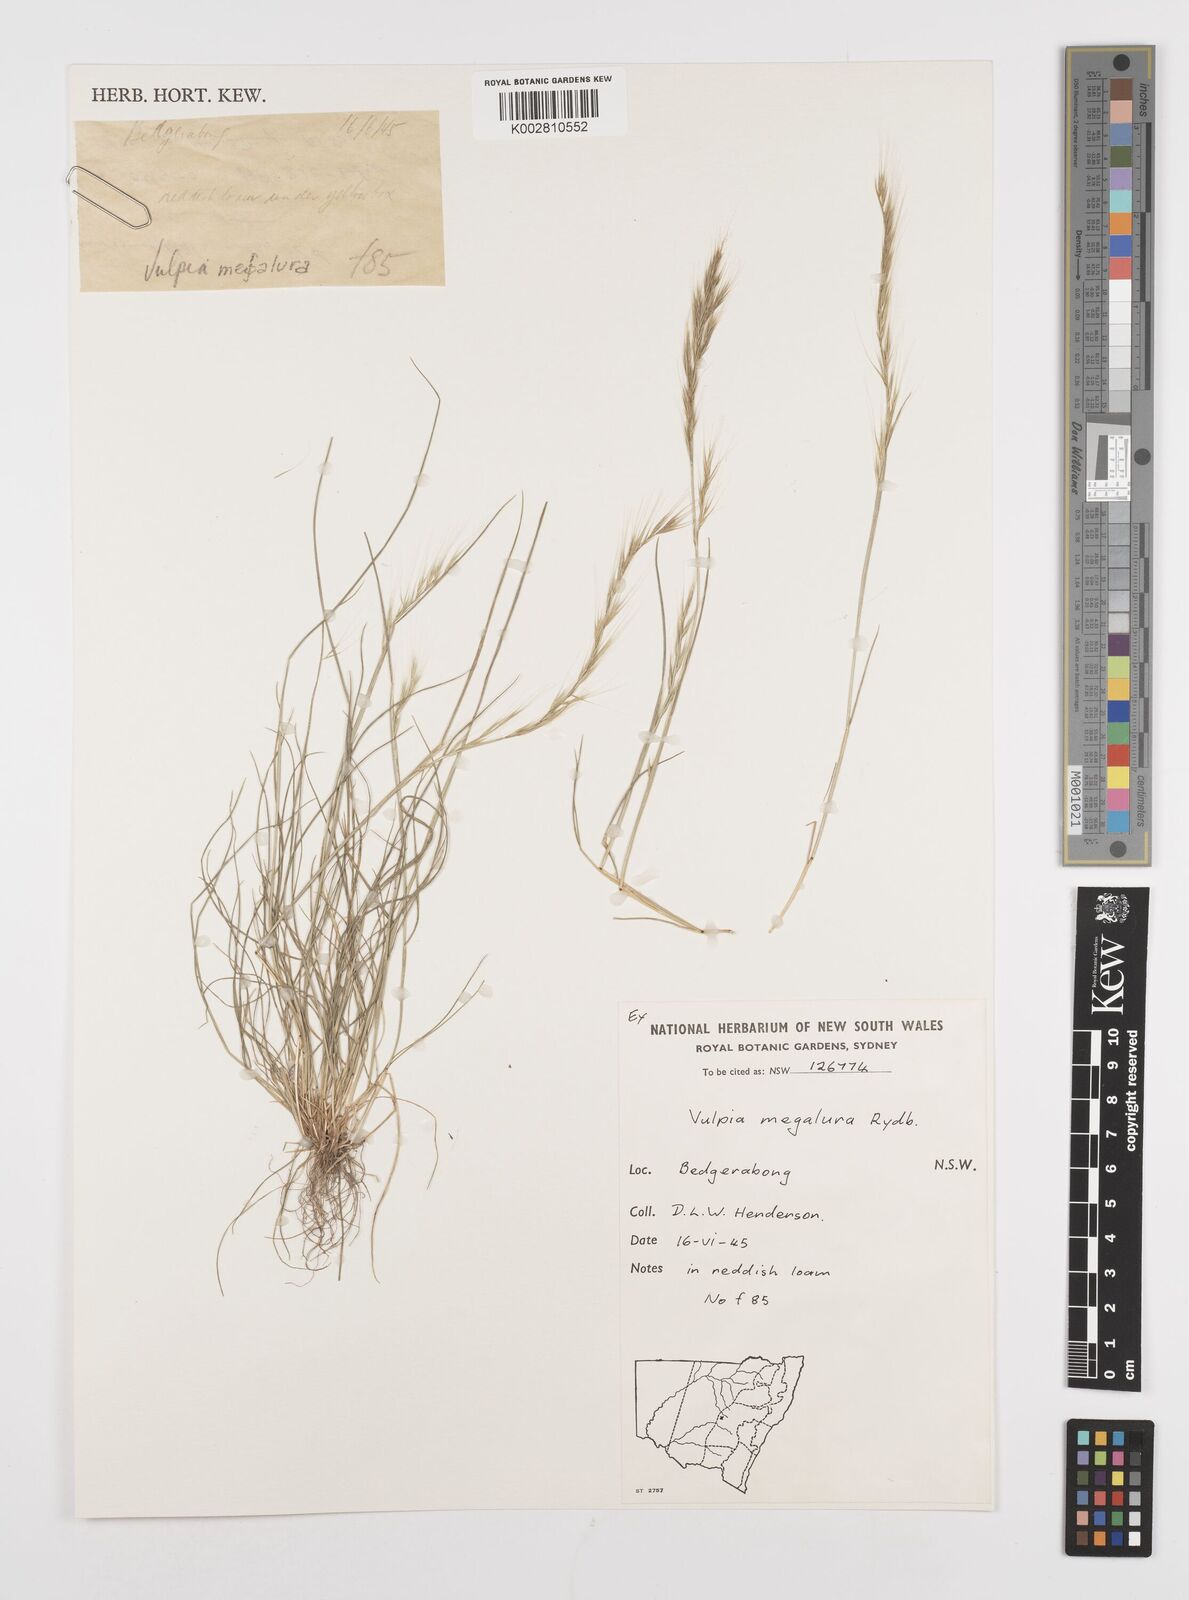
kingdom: Plantae
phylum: Tracheophyta
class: Liliopsida
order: Poales
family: Poaceae
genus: Festuca
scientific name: Festuca myuros
